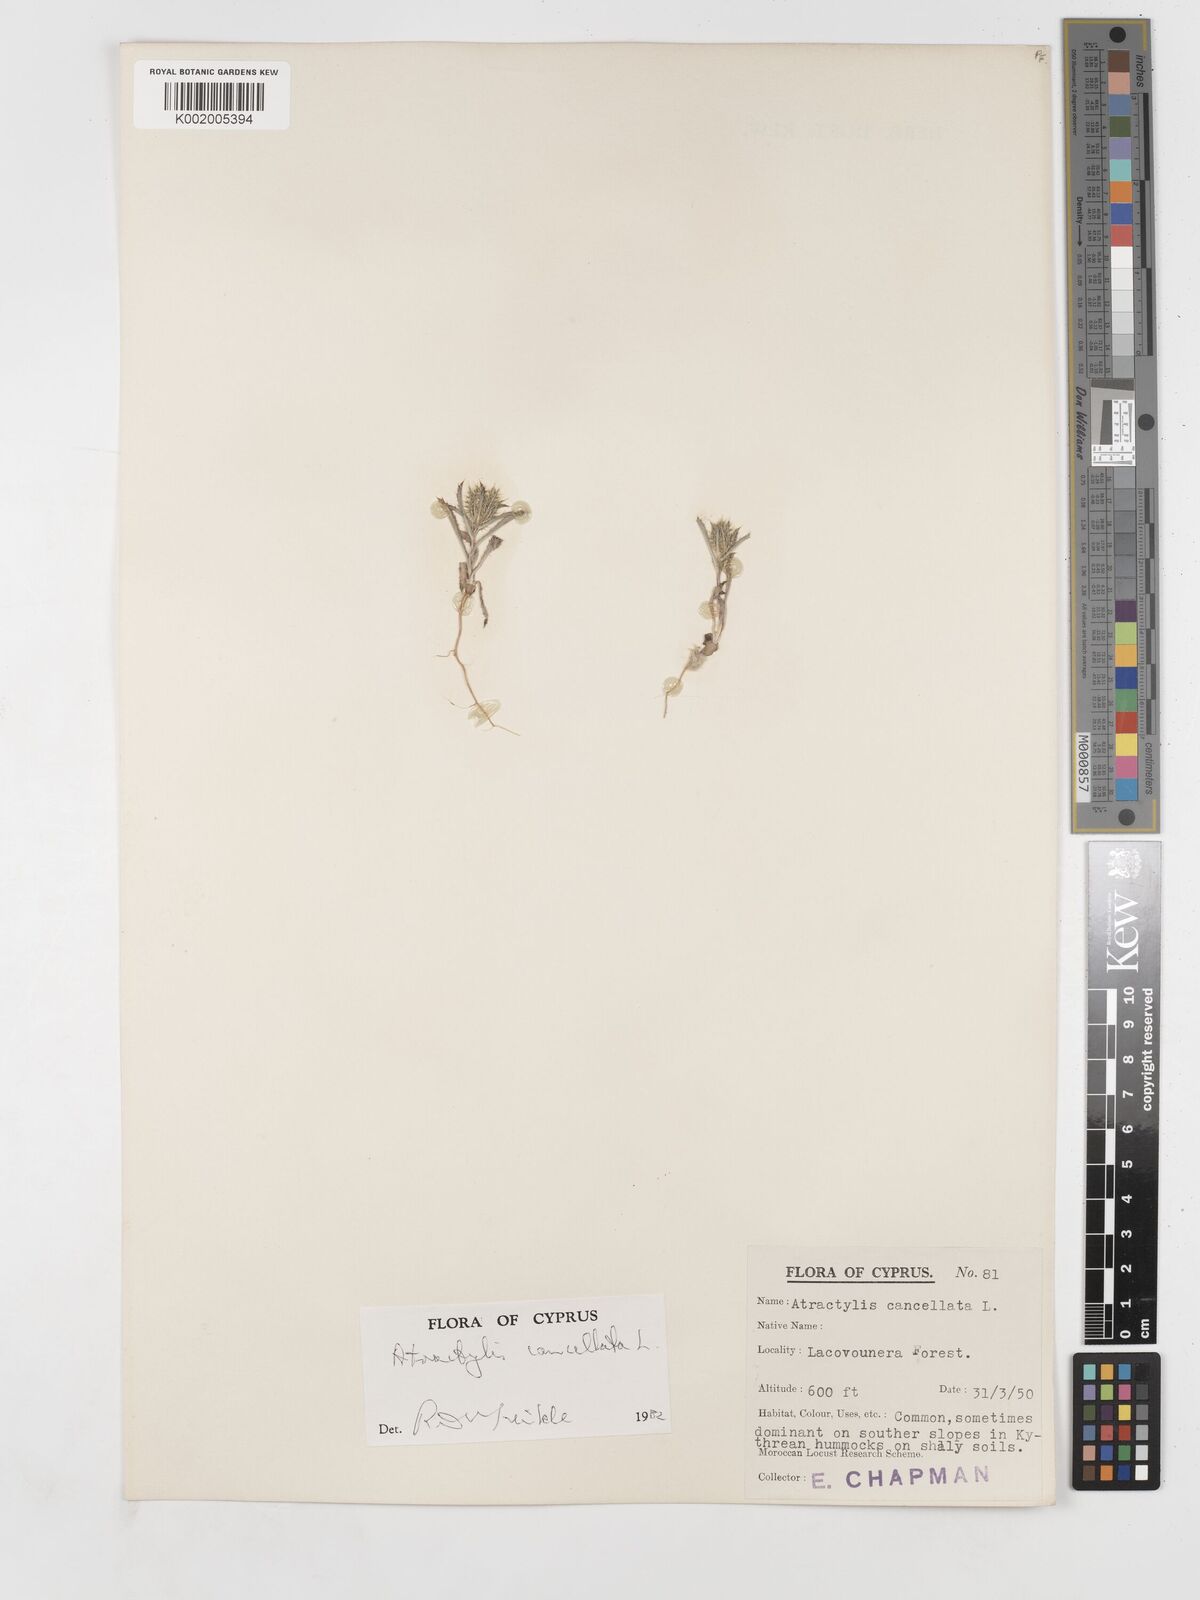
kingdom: Plantae
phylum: Tracheophyta
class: Magnoliopsida
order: Asterales
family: Asteraceae
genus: Atractylis
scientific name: Atractylis cancellata
